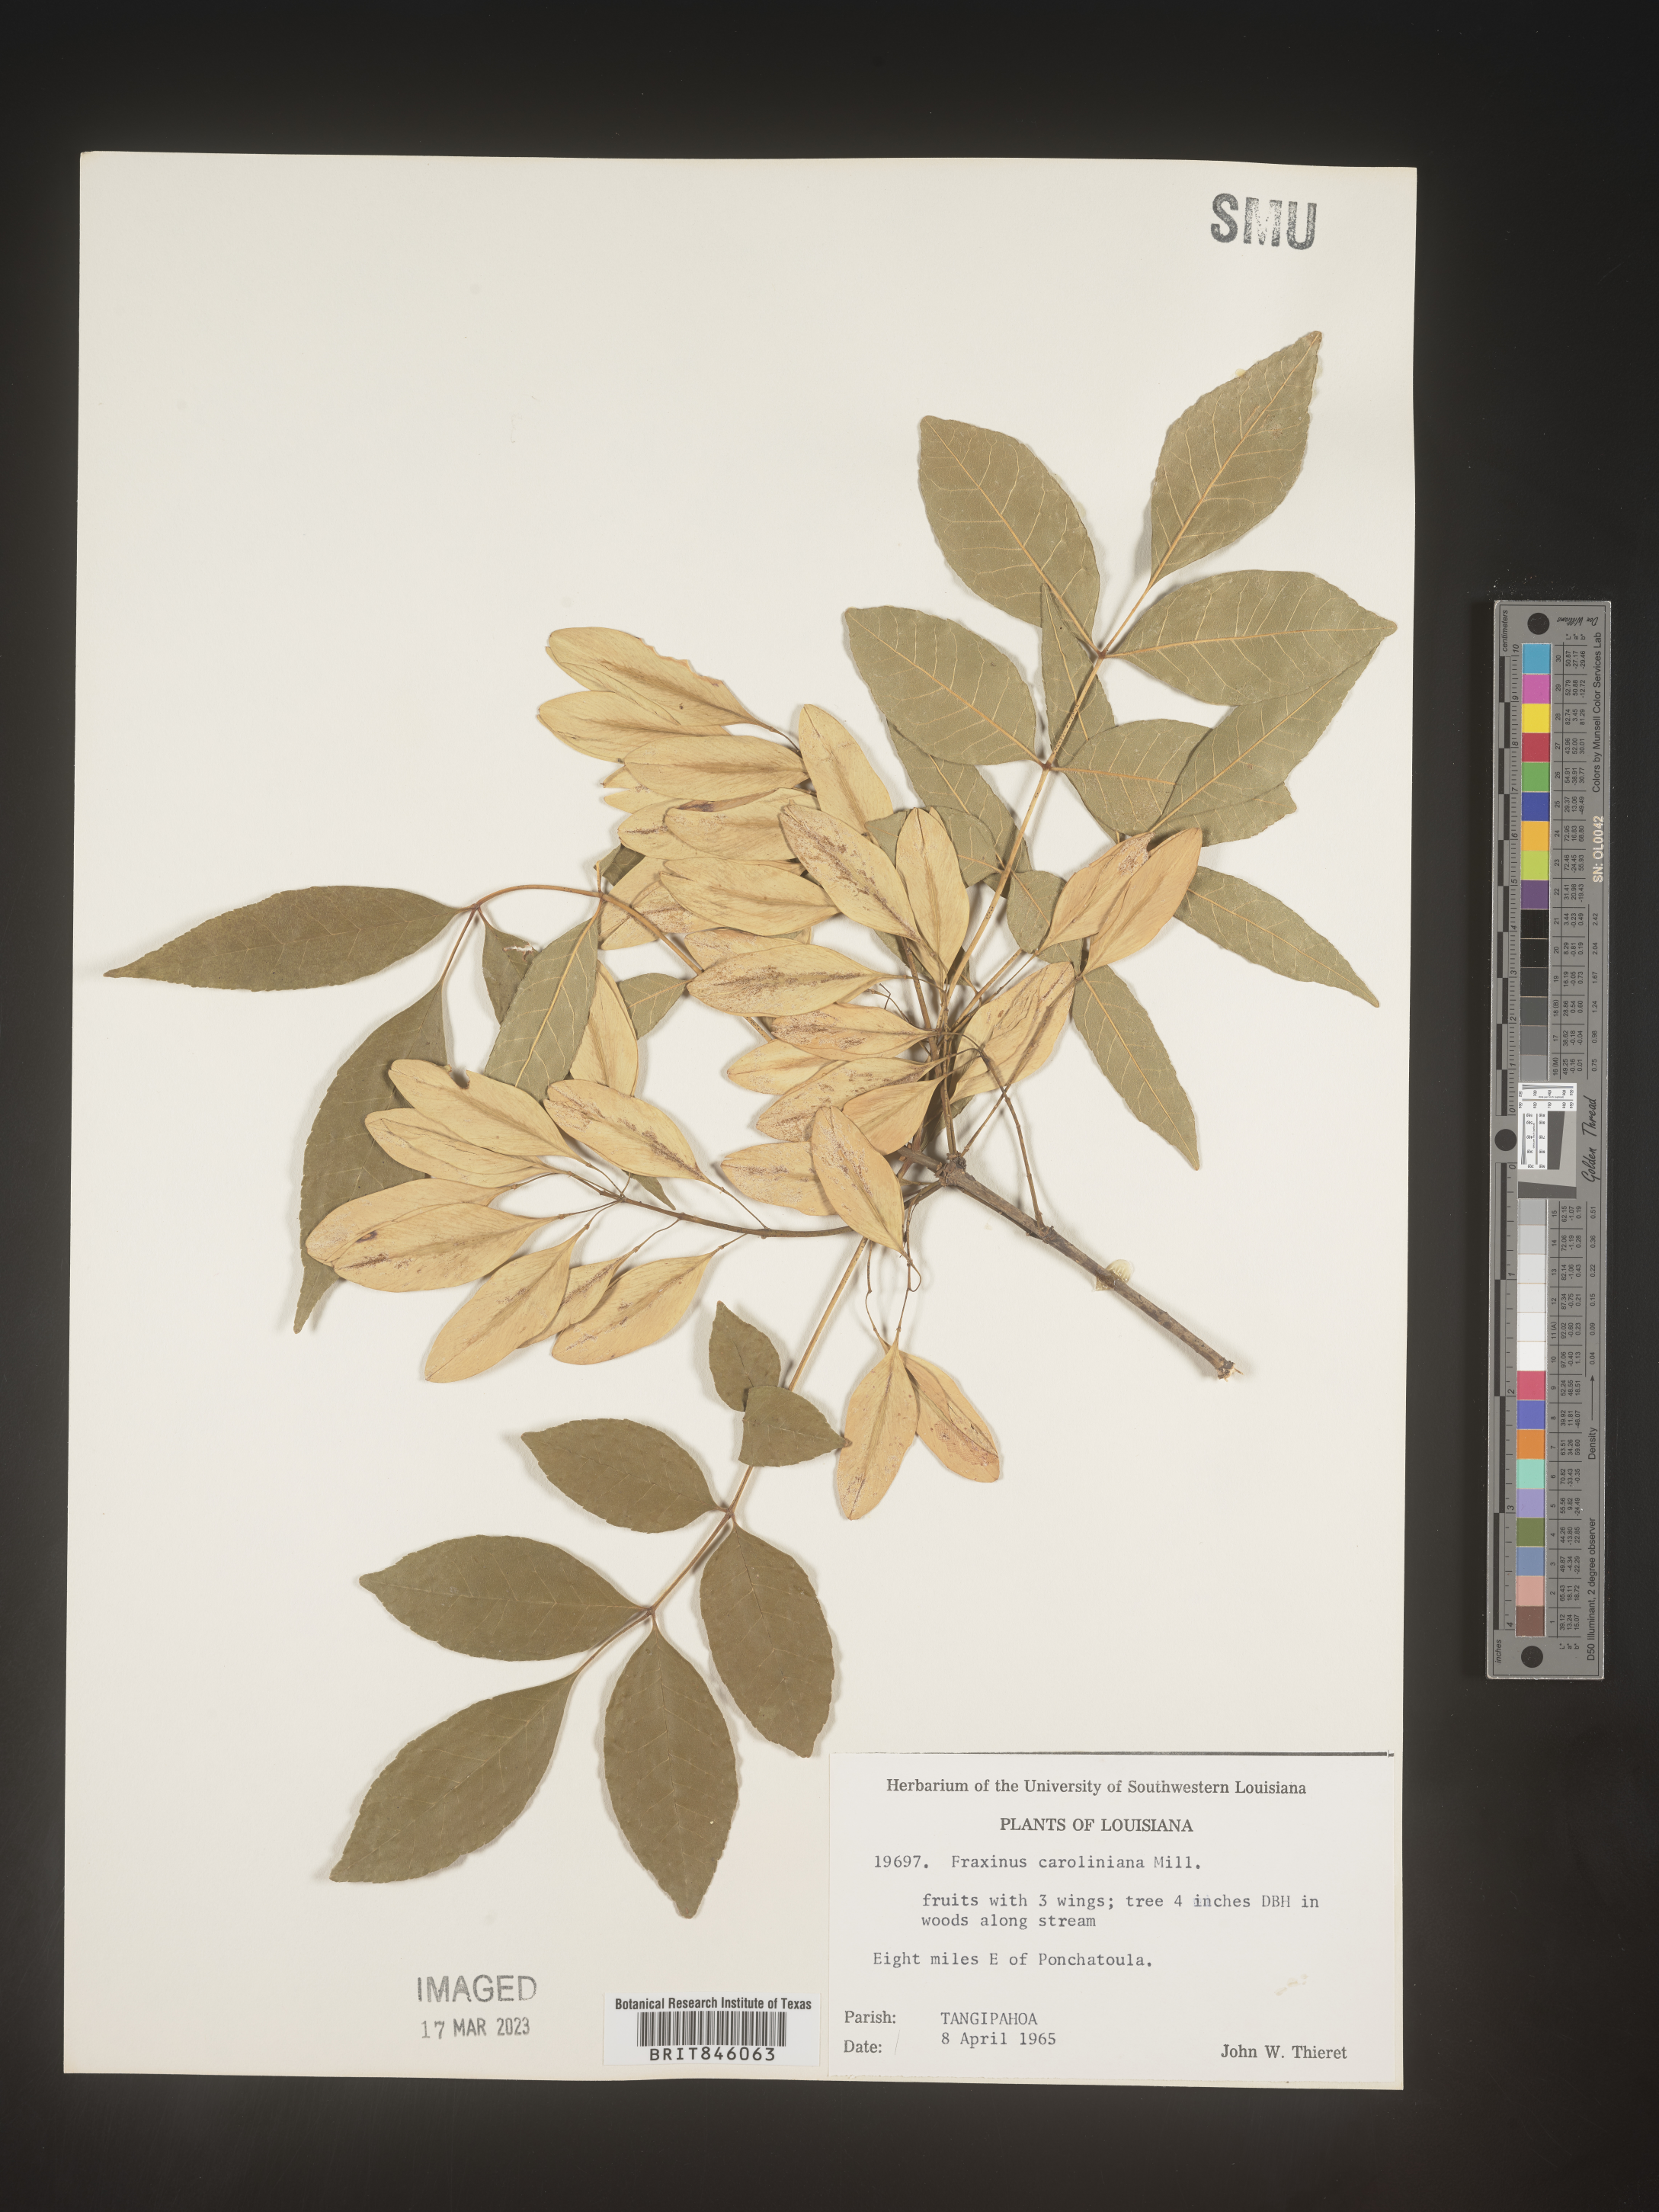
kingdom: Plantae
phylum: Tracheophyta
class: Magnoliopsida
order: Lamiales
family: Oleaceae
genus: Fraxinus
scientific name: Fraxinus caroliniana
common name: Carolina ash
